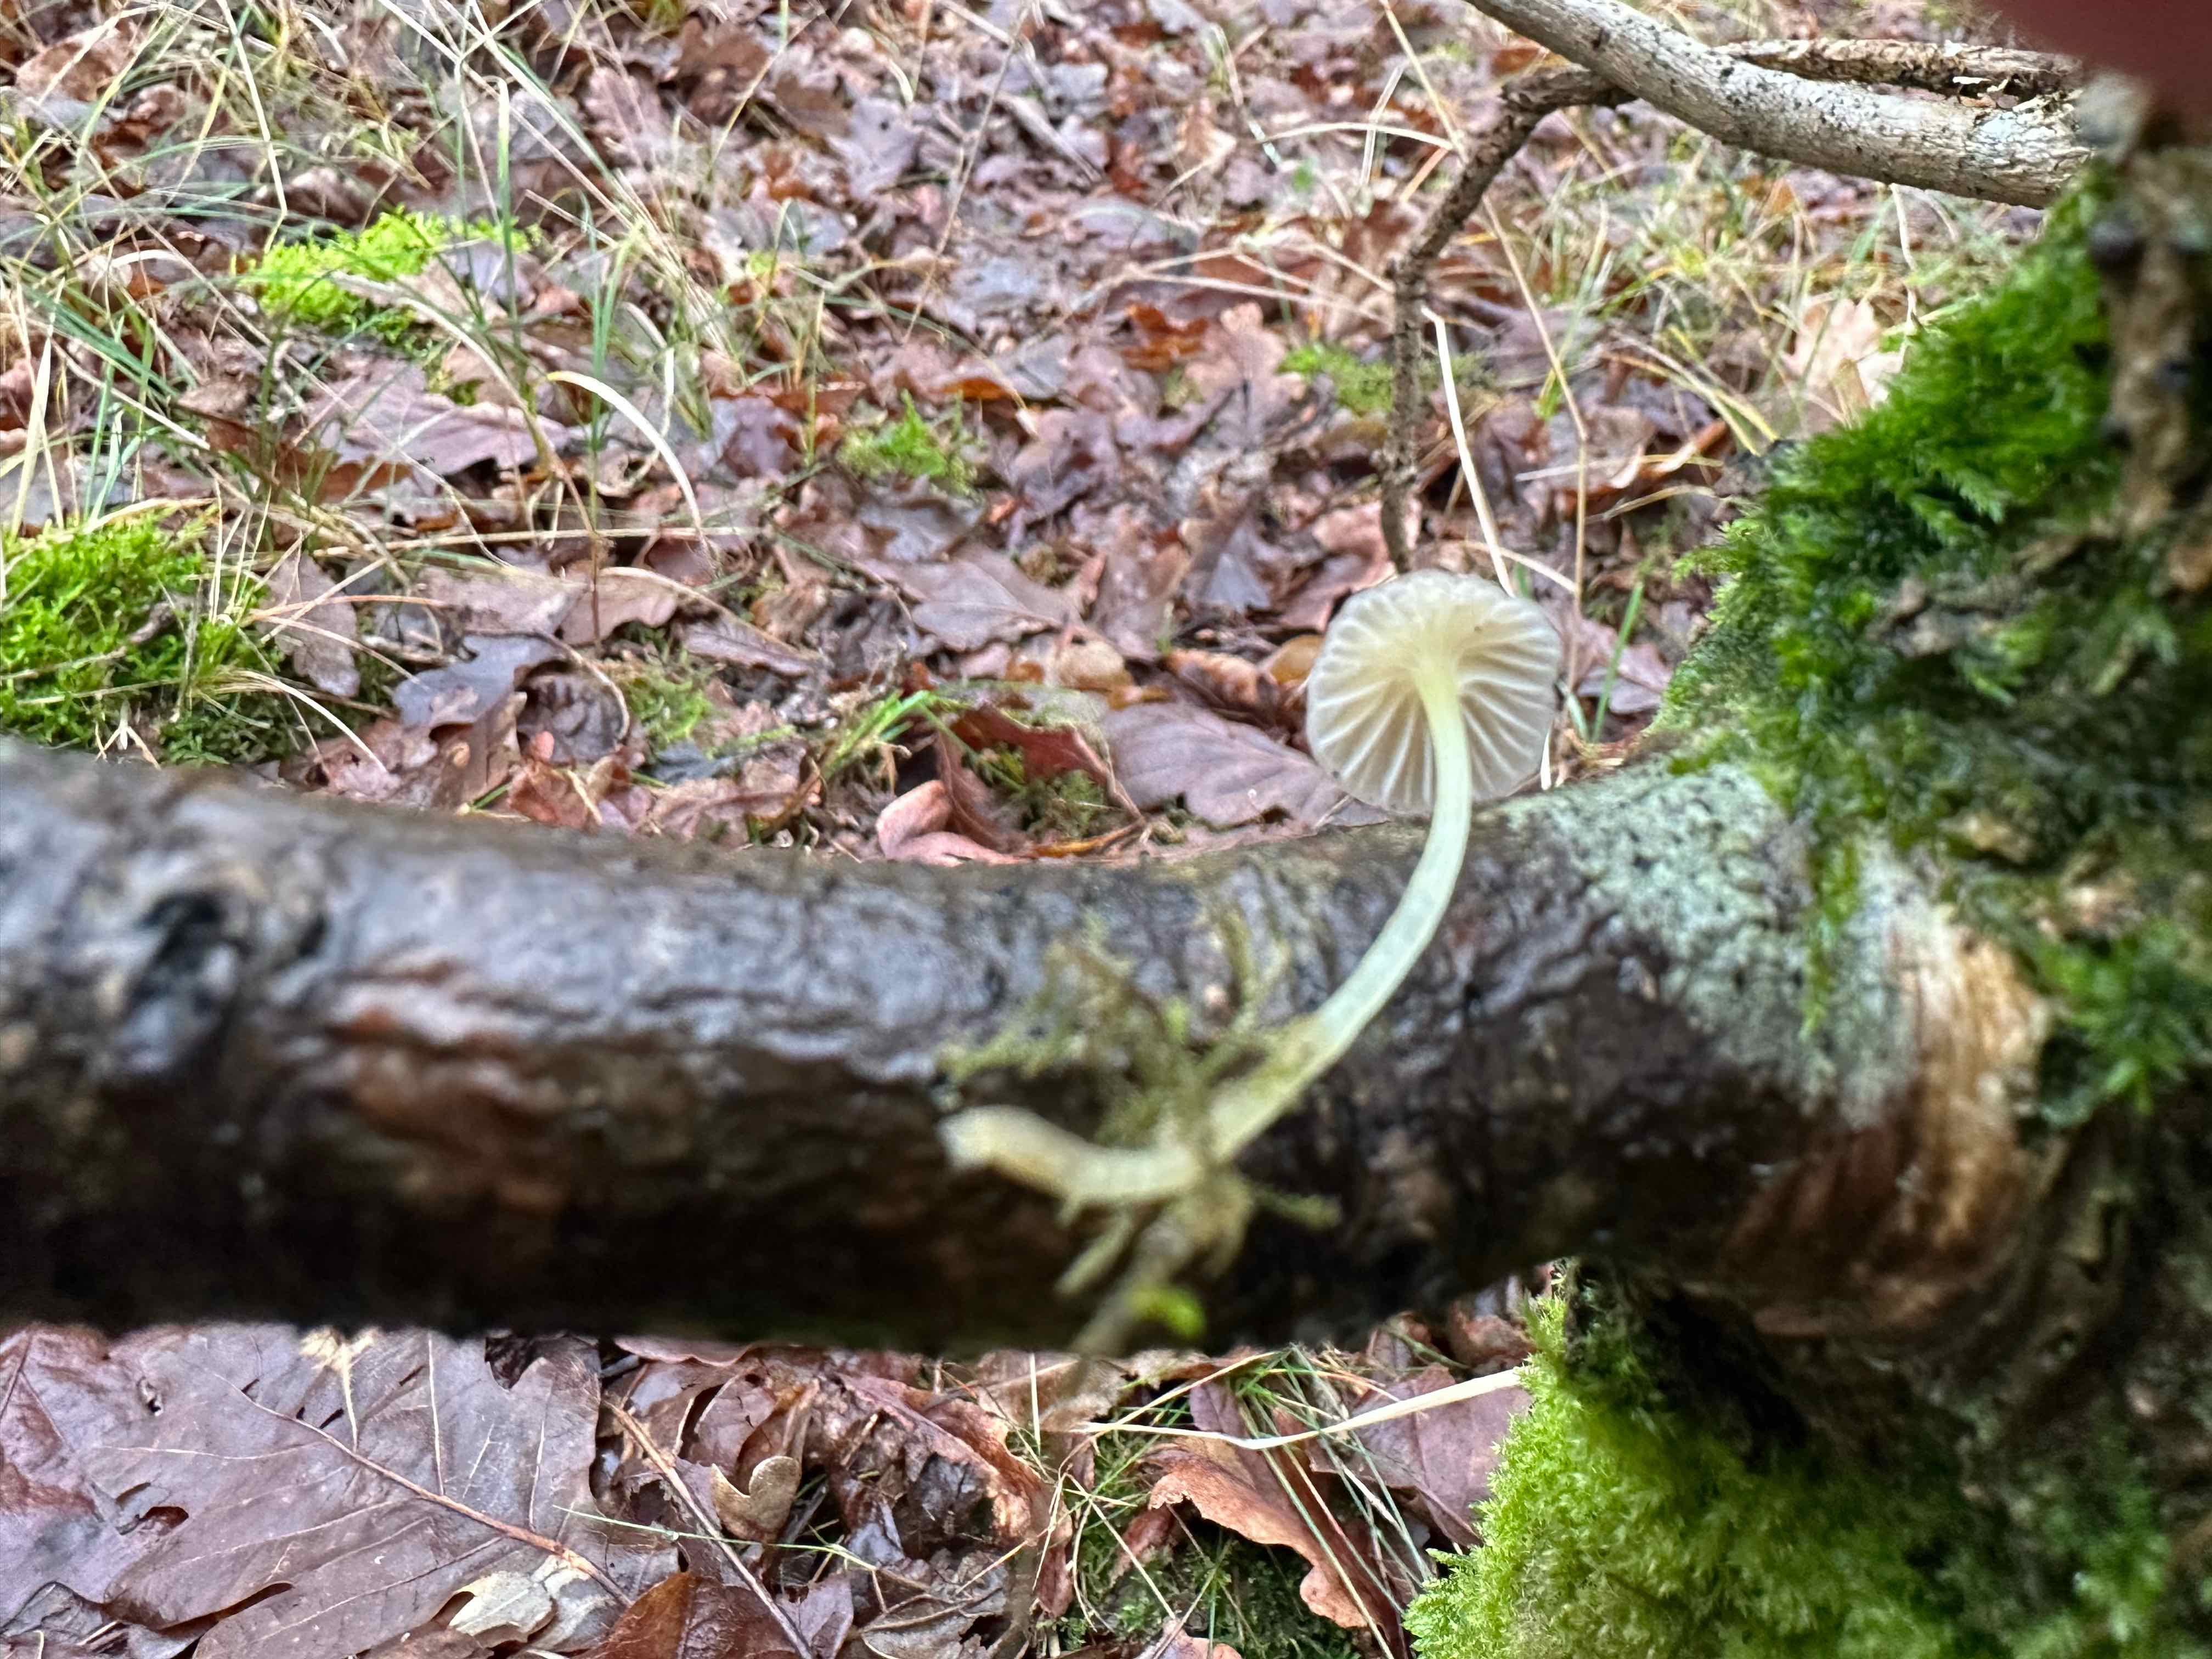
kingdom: Fungi
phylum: Basidiomycota
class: Agaricomycetes
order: Agaricales
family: Mycenaceae
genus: Mycena
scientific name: Mycena epipterygia
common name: gulstokket huesvamp
